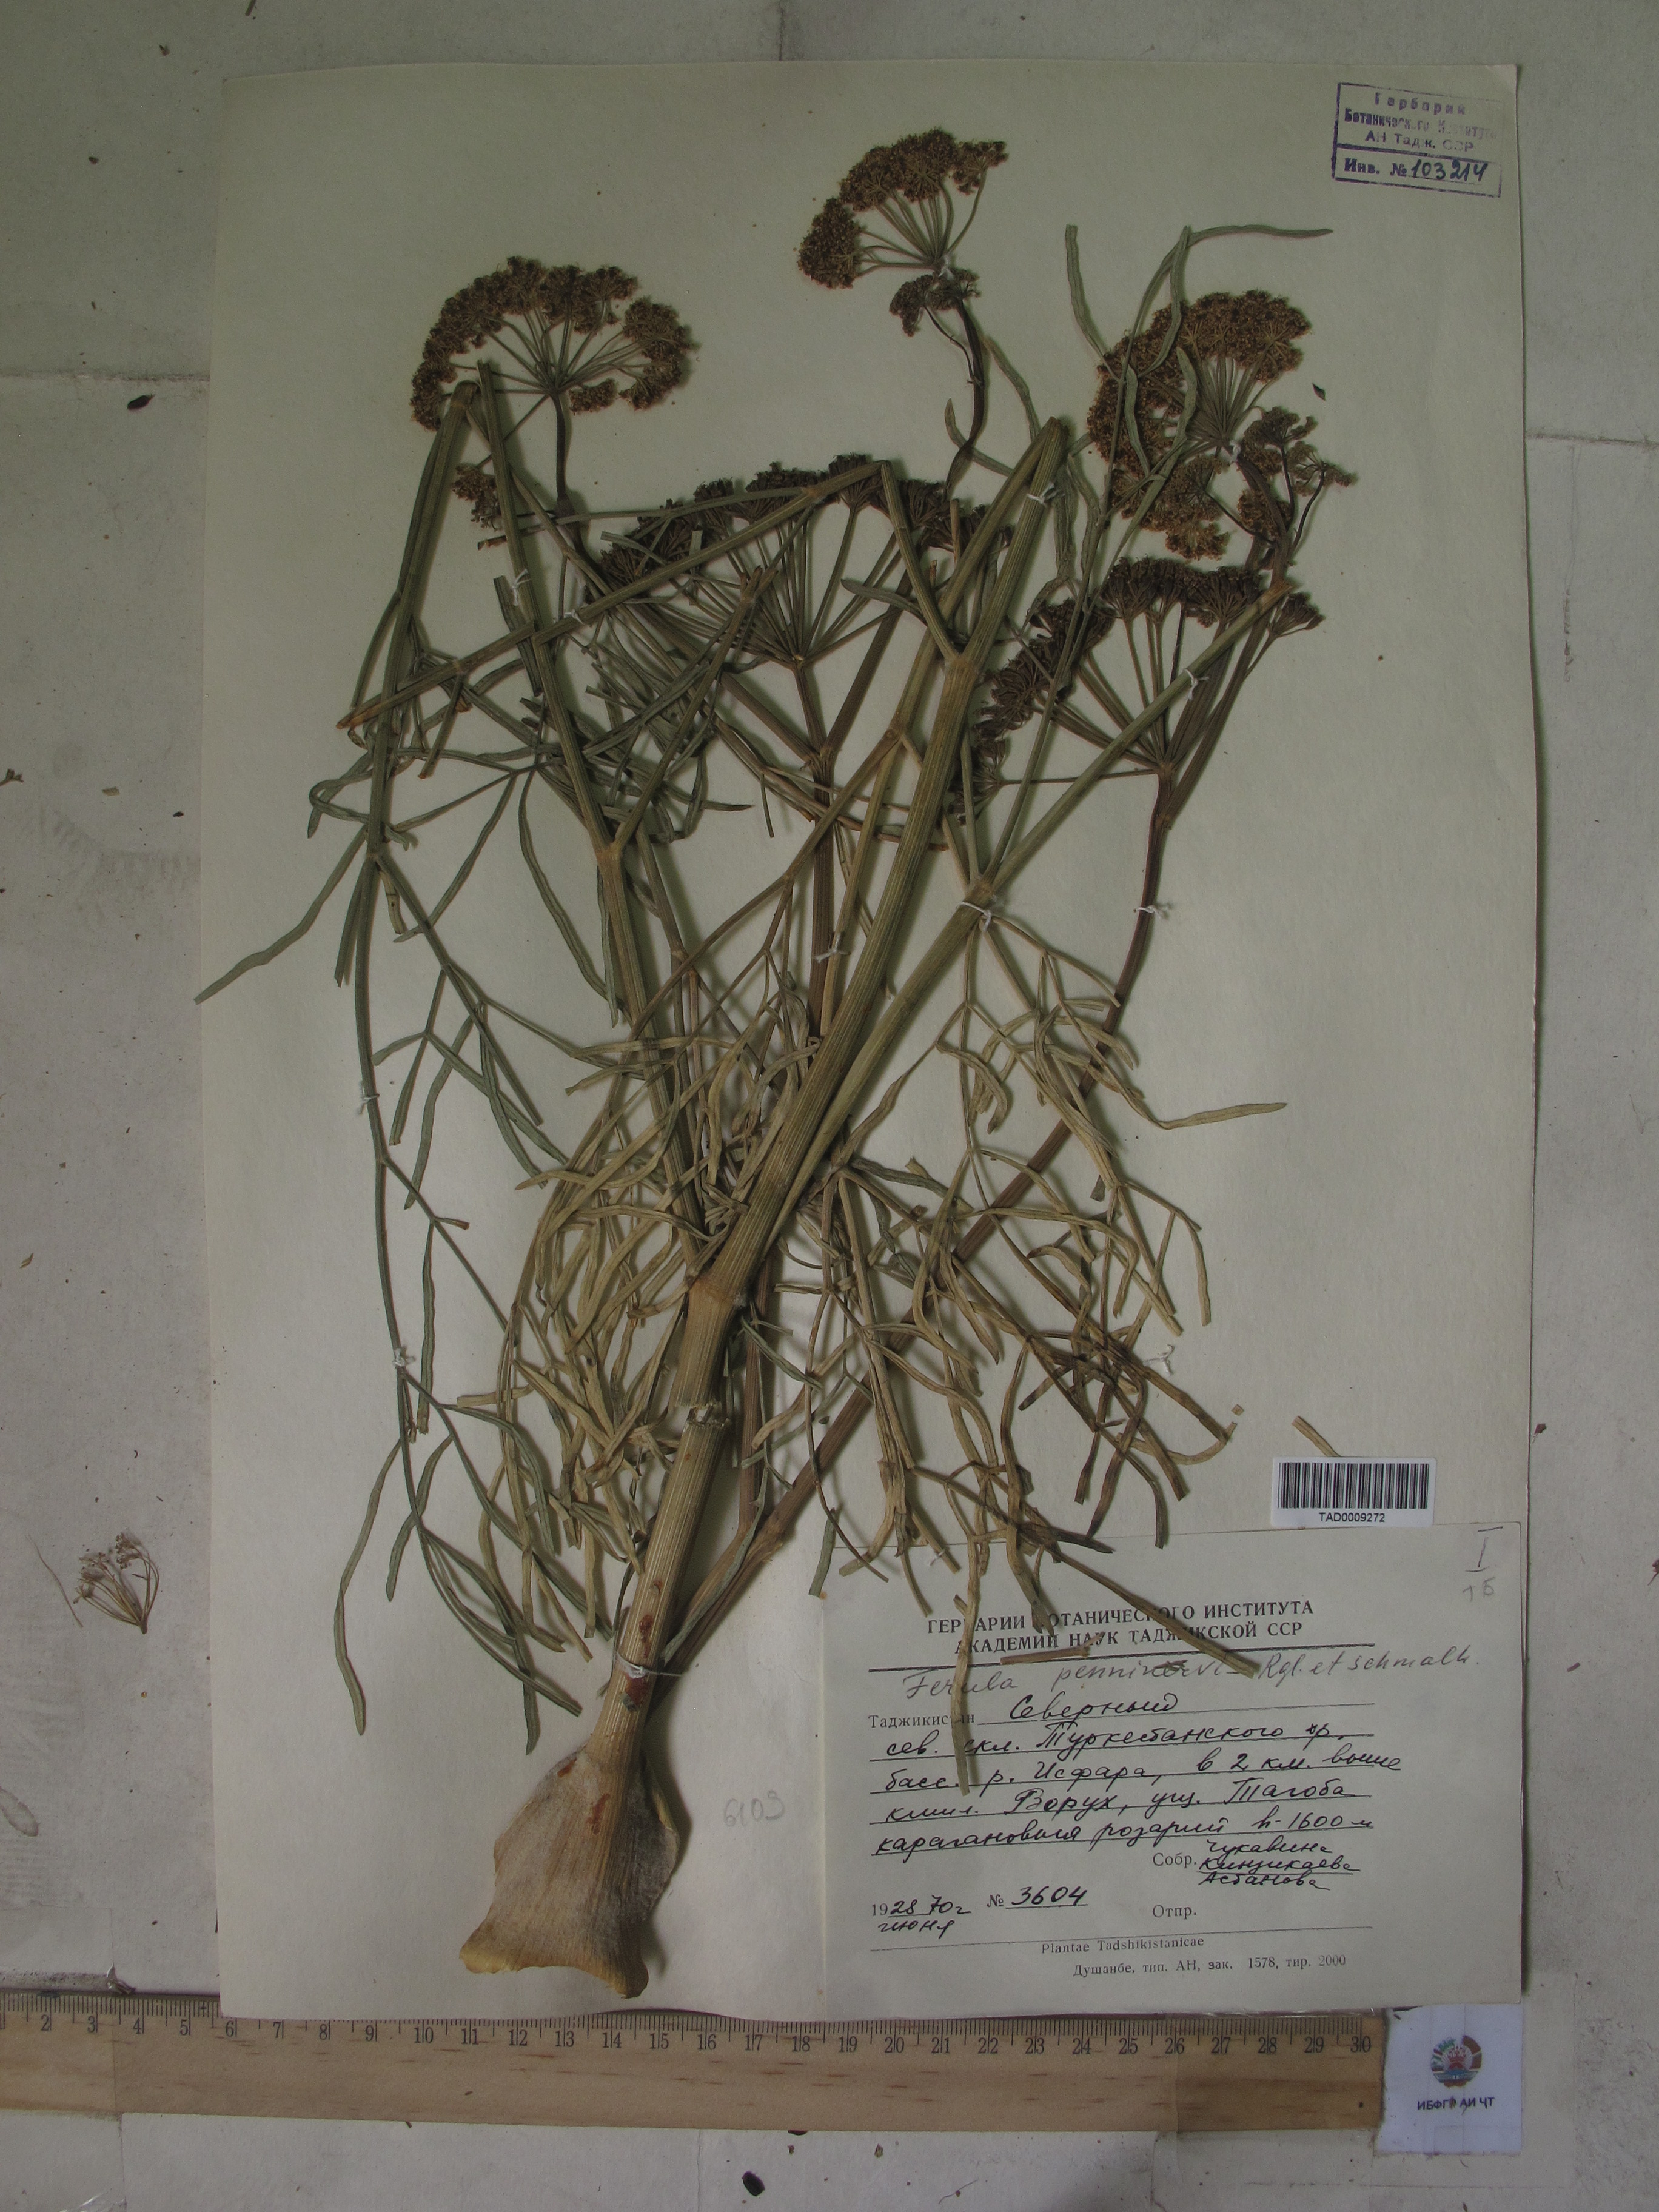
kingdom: Plantae
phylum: Tracheophyta
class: Magnoliopsida
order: Apiales
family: Apiaceae
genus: Ferula
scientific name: Ferula
